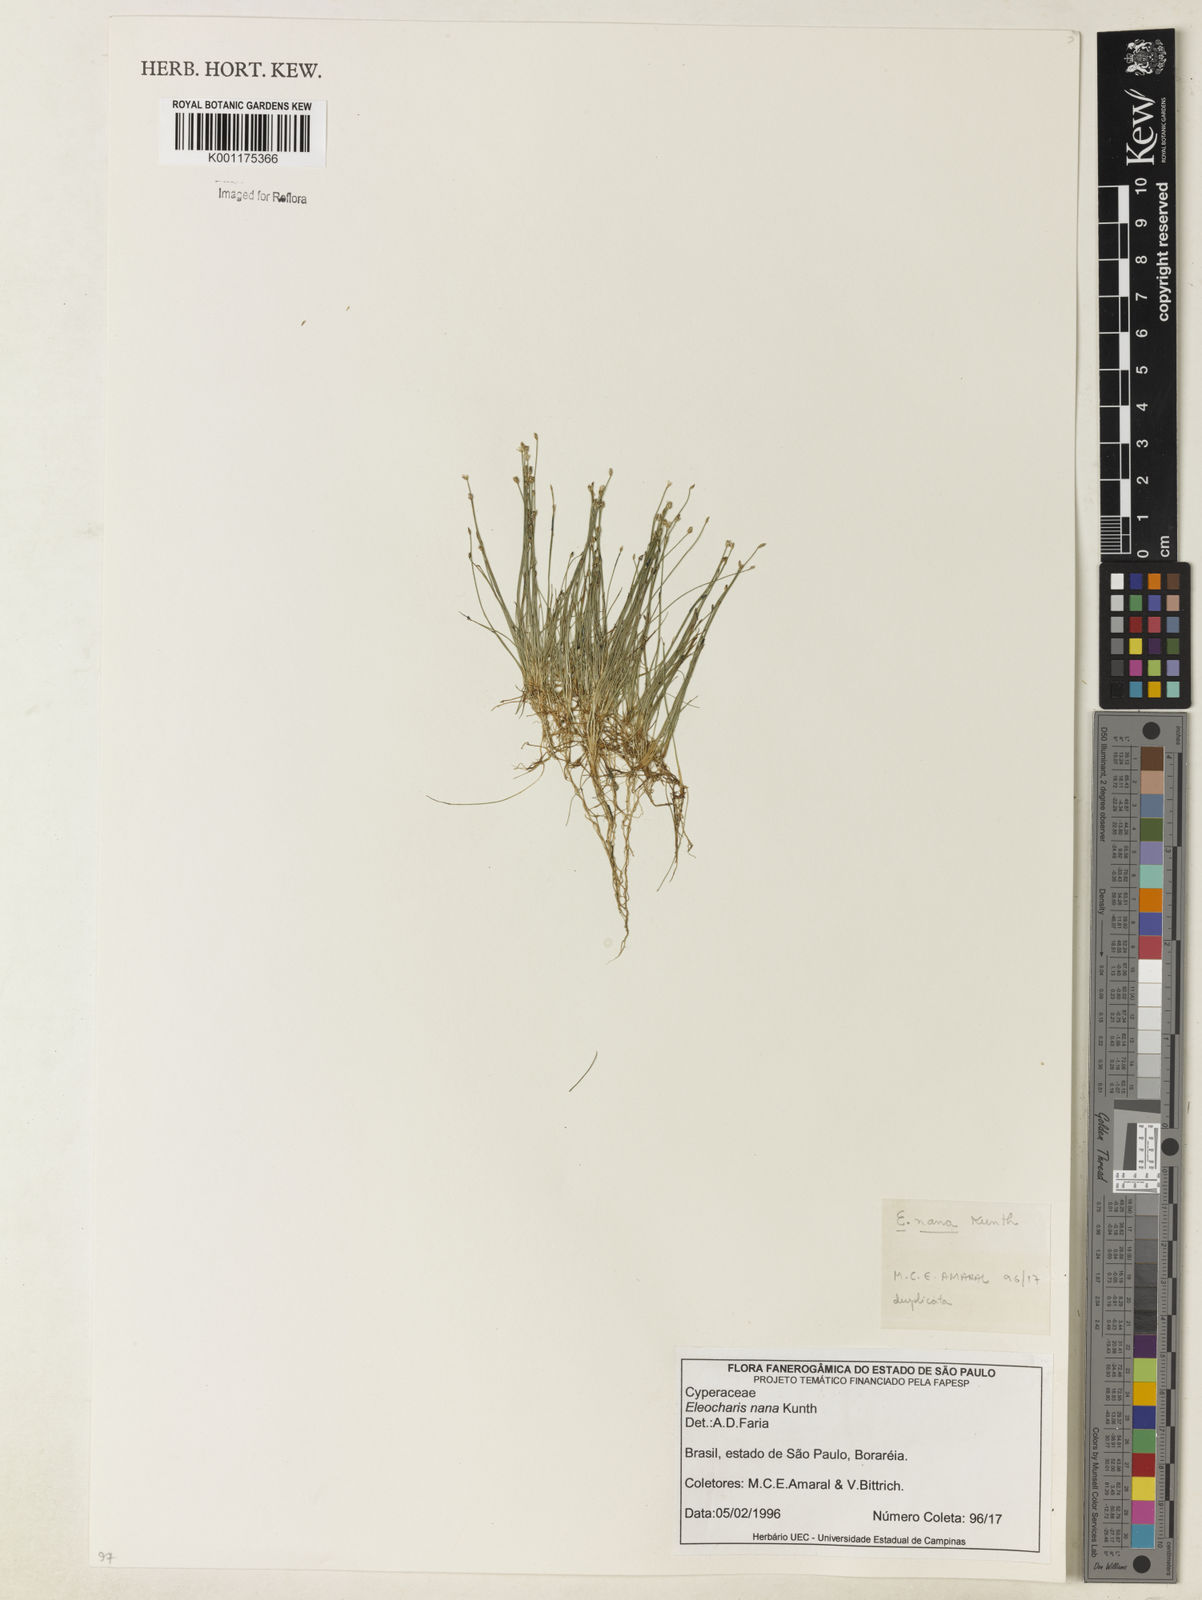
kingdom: Plantae
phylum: Tracheophyta
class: Liliopsida
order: Poales
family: Cyperaceae
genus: Eleocharis
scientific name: Eleocharis nana
